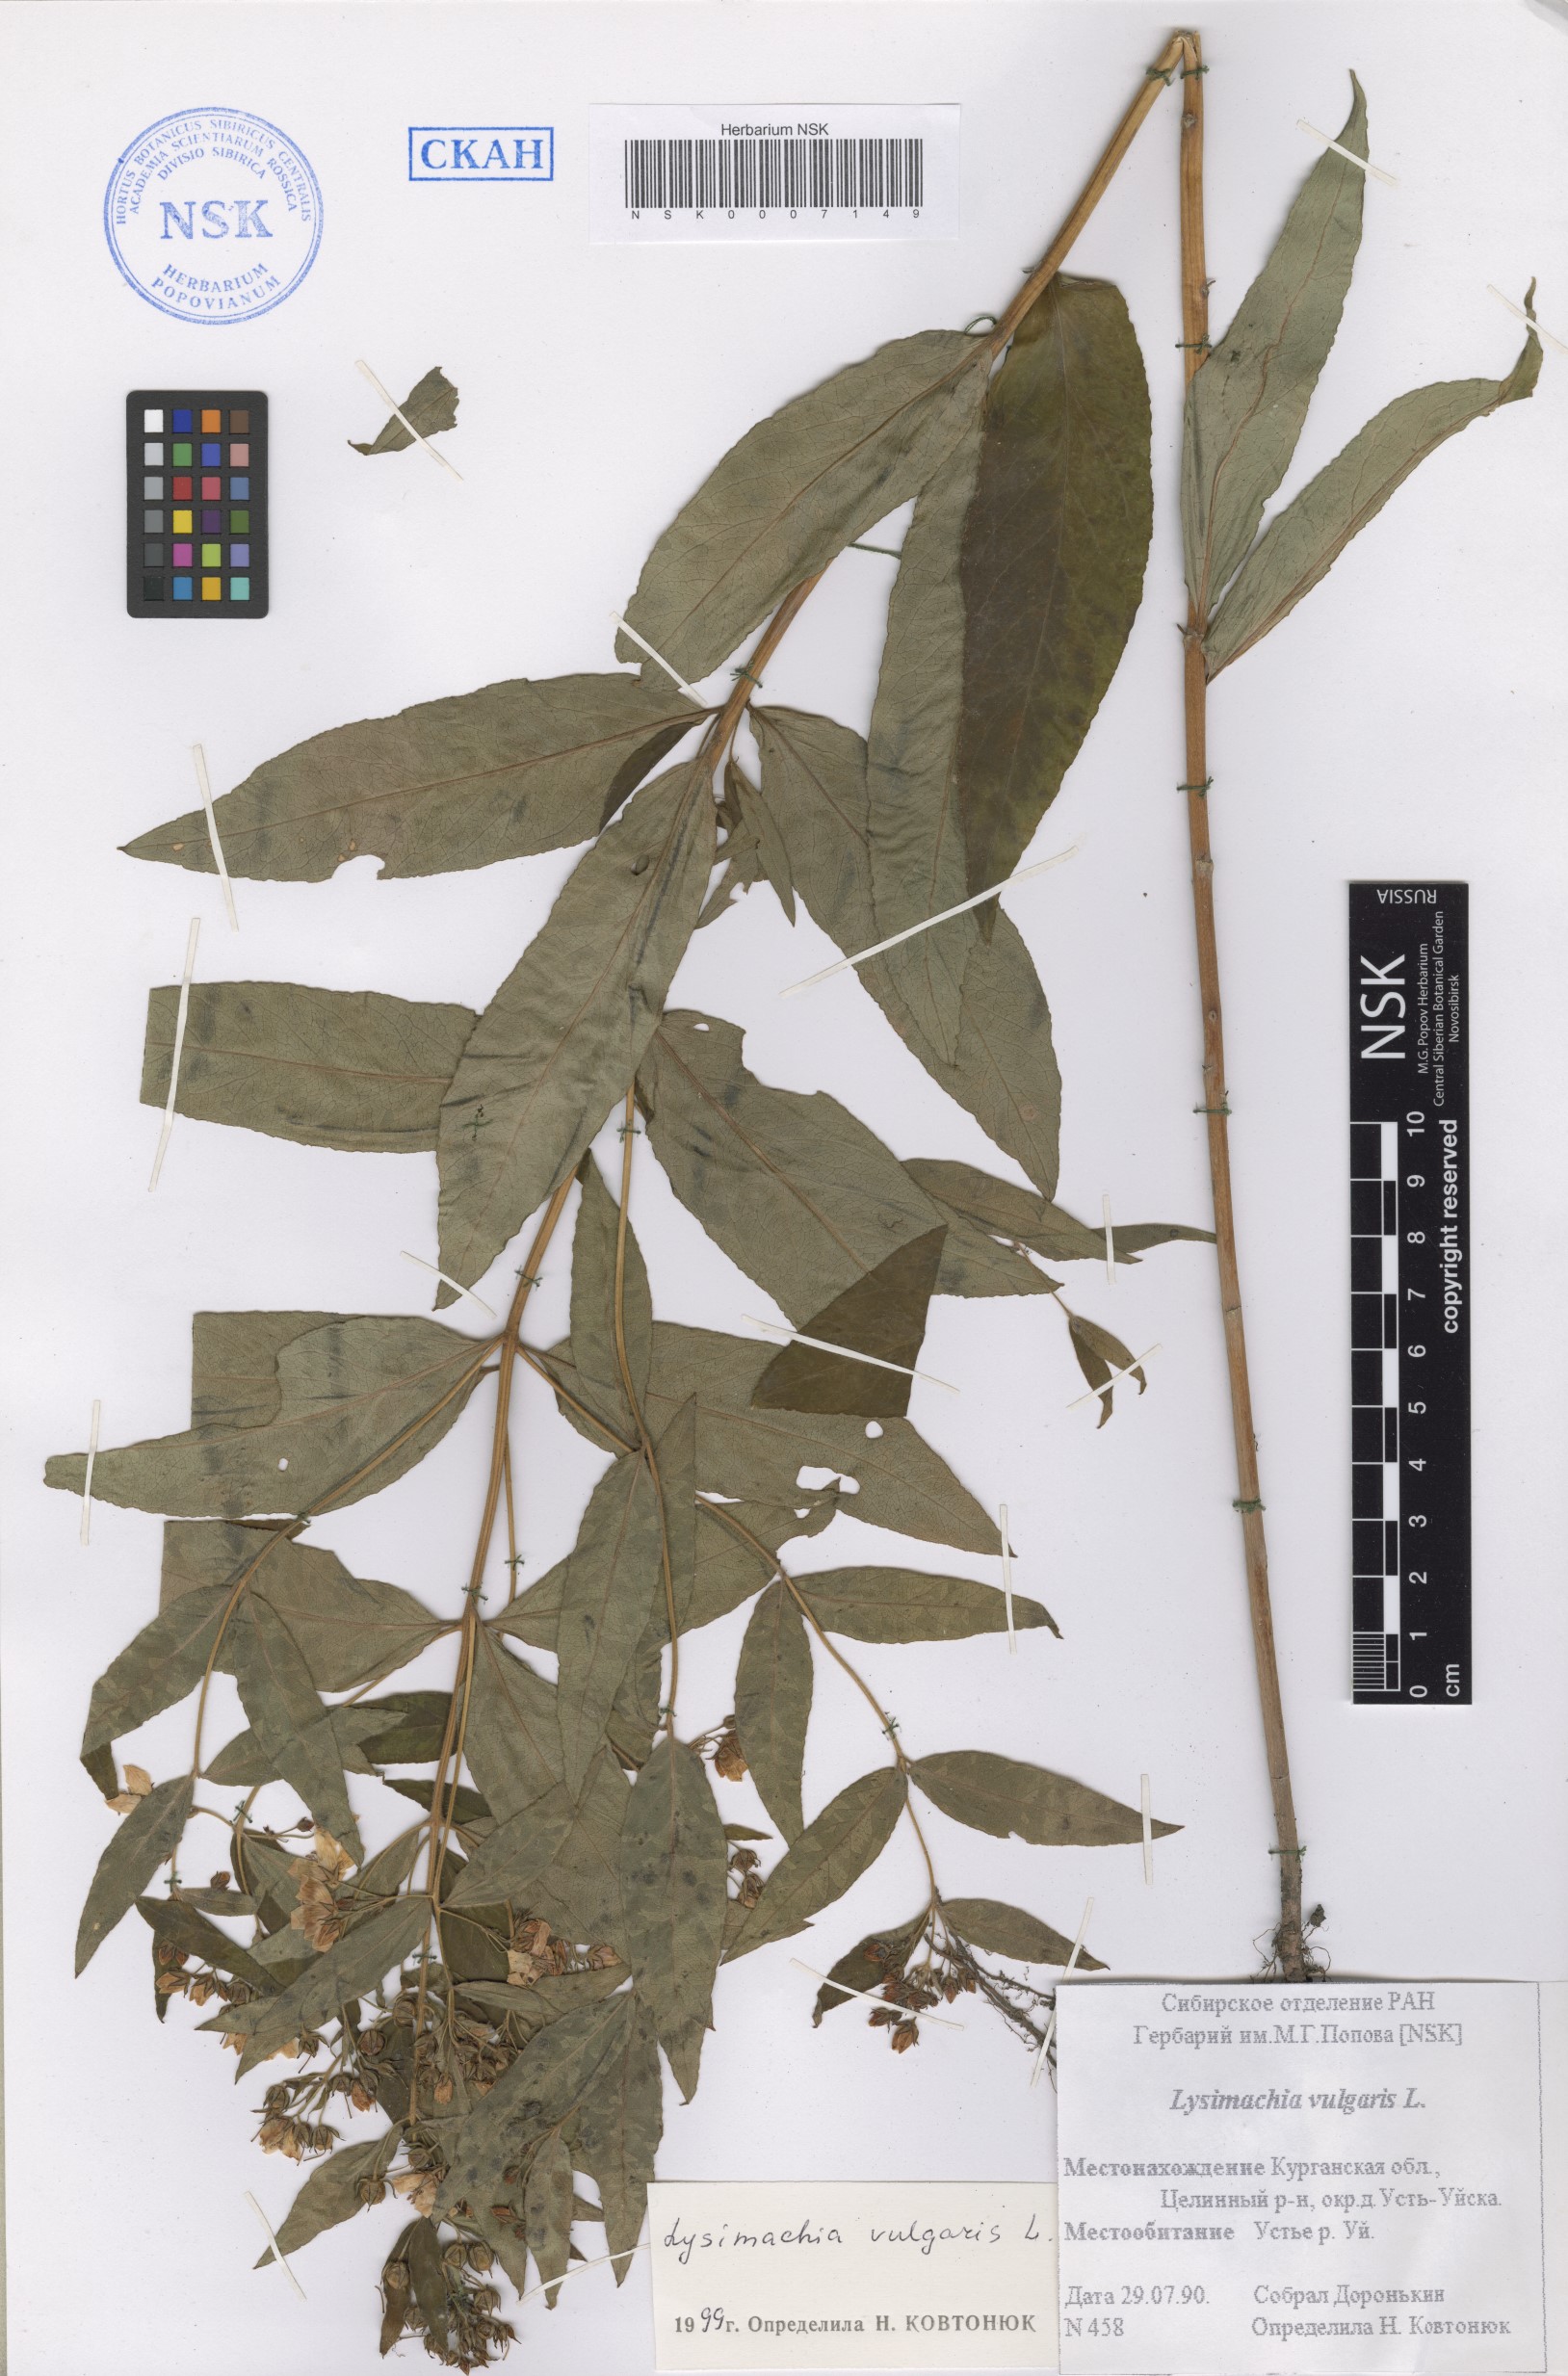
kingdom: Plantae
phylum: Tracheophyta
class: Magnoliopsida
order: Ericales
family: Primulaceae
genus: Lysimachia
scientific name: Lysimachia vulgaris
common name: Yellow loosestrife
